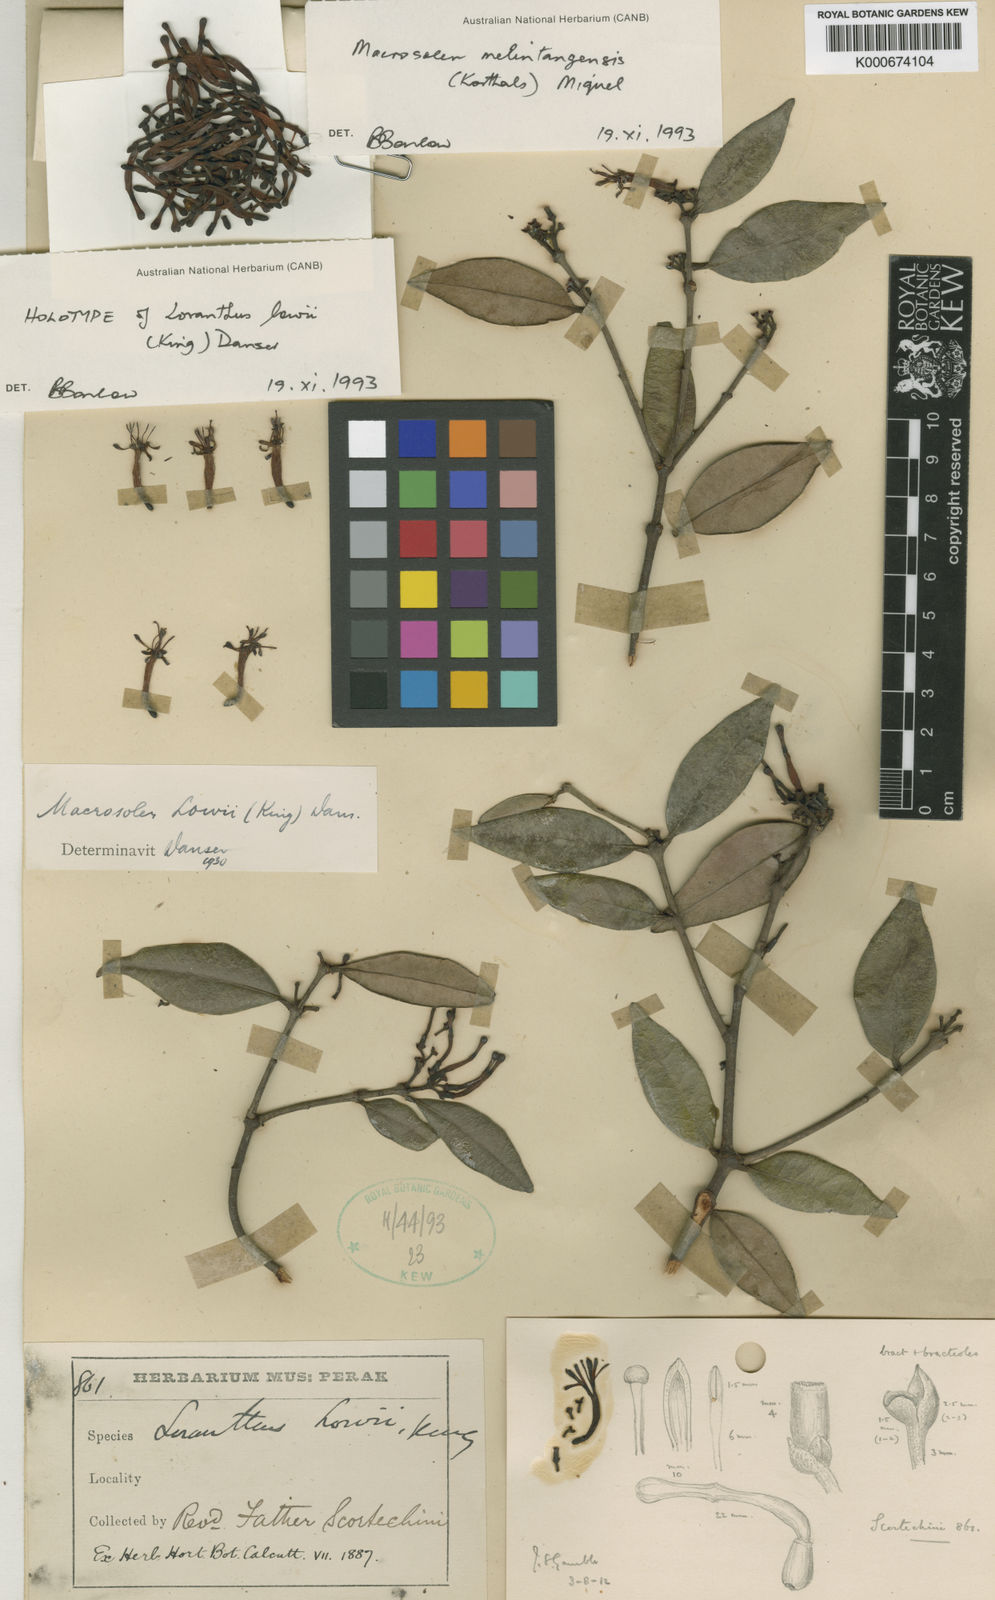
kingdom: Plantae
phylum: Tracheophyta
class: Magnoliopsida
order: Santalales
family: Loranthaceae
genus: Macrosolen
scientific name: Macrosolen melintangensis
